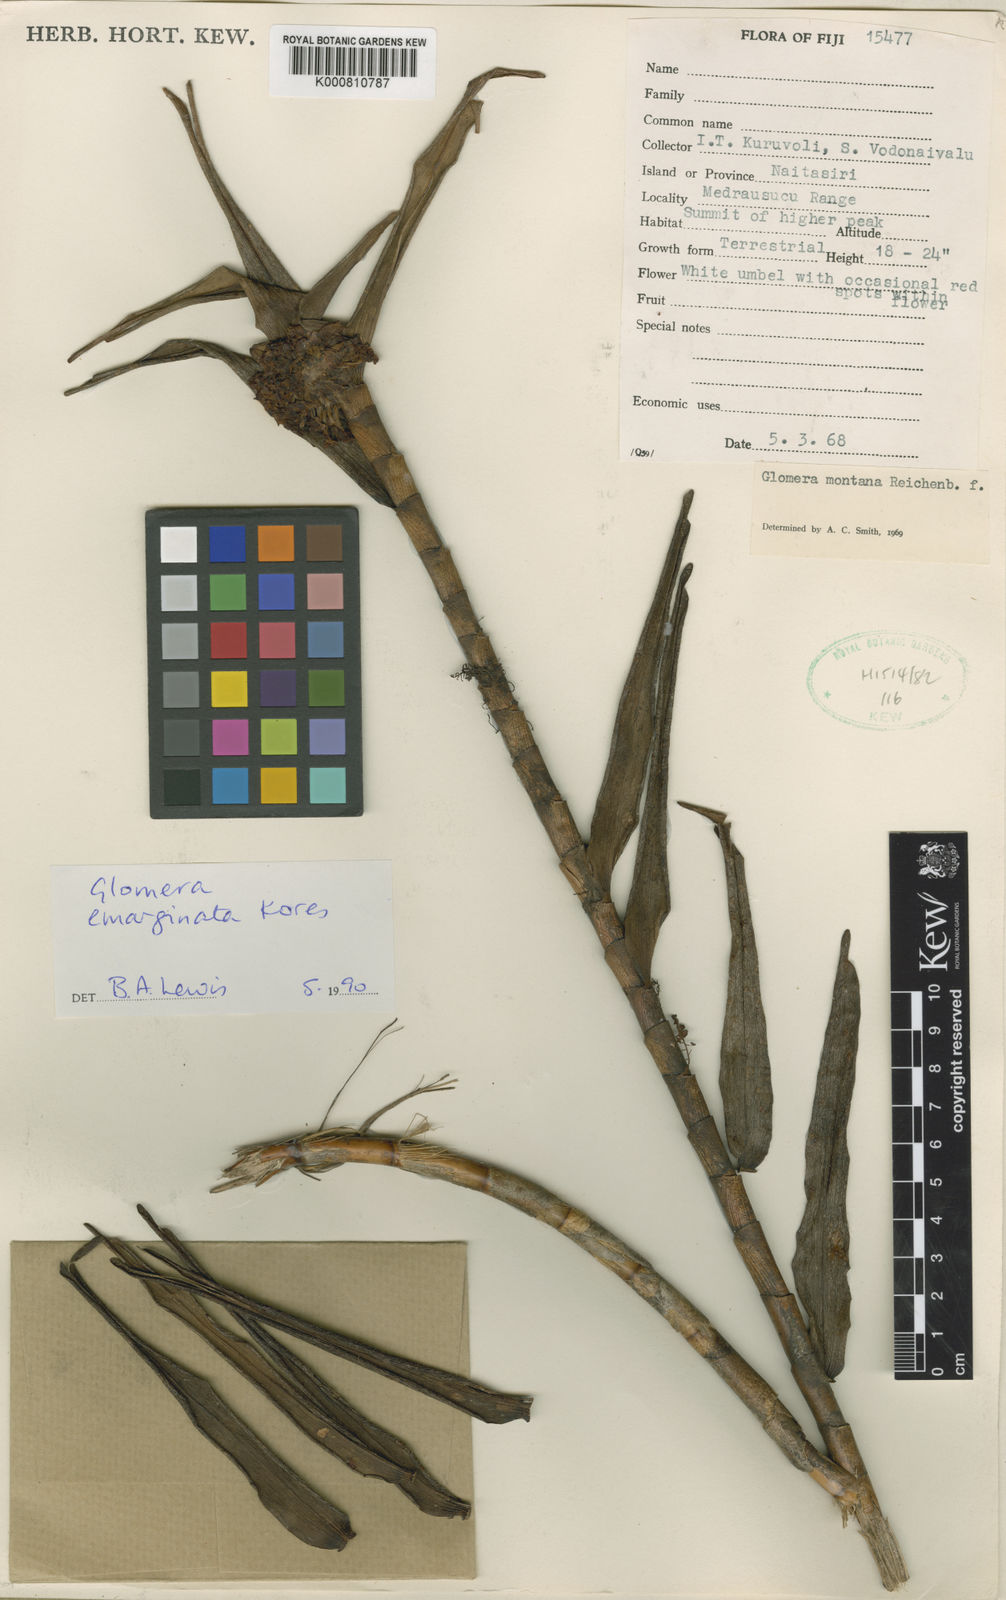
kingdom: Plantae
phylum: Tracheophyta
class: Liliopsida
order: Asparagales
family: Orchidaceae
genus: Glomera
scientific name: Glomera emarginata
